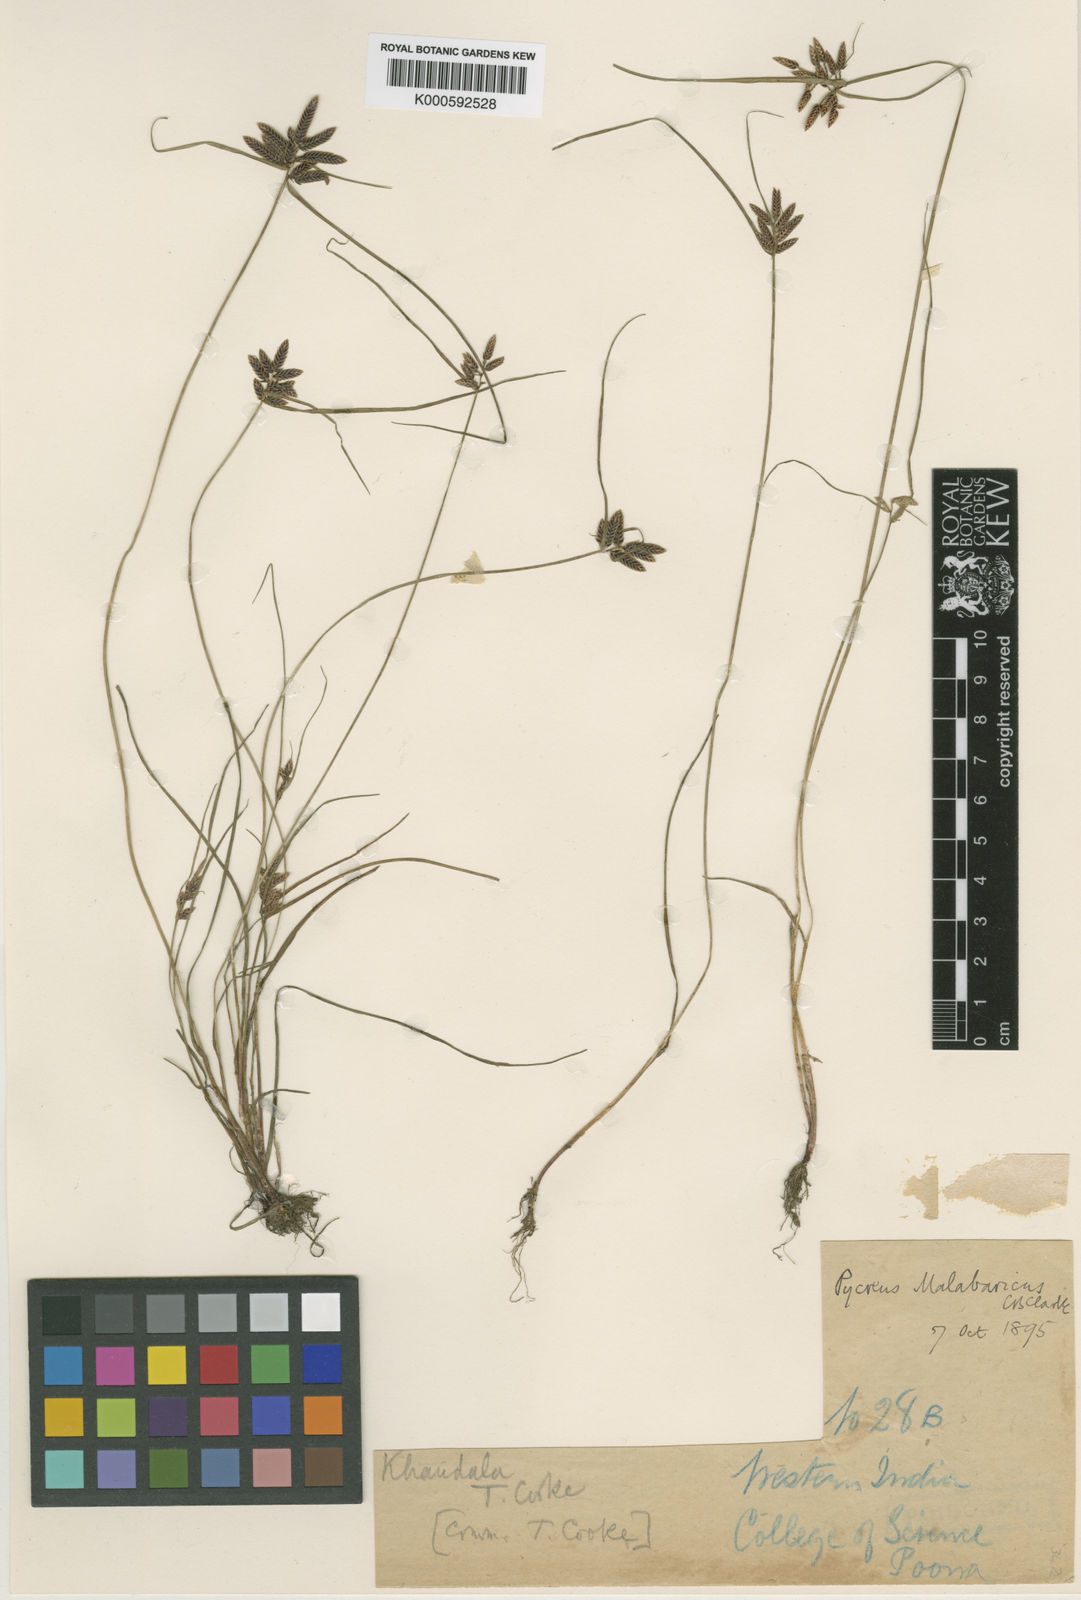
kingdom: Plantae
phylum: Tracheophyta
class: Liliopsida
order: Poales
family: Cyperaceae
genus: Cyperus
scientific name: Cyperus malabaricus
